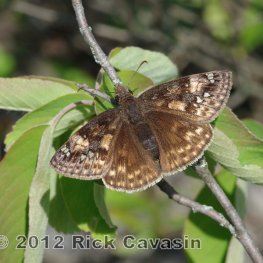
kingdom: Animalia
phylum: Arthropoda
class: Insecta
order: Lepidoptera
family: Hesperiidae
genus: Gesta
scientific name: Gesta
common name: Juvenal's Duskywing
